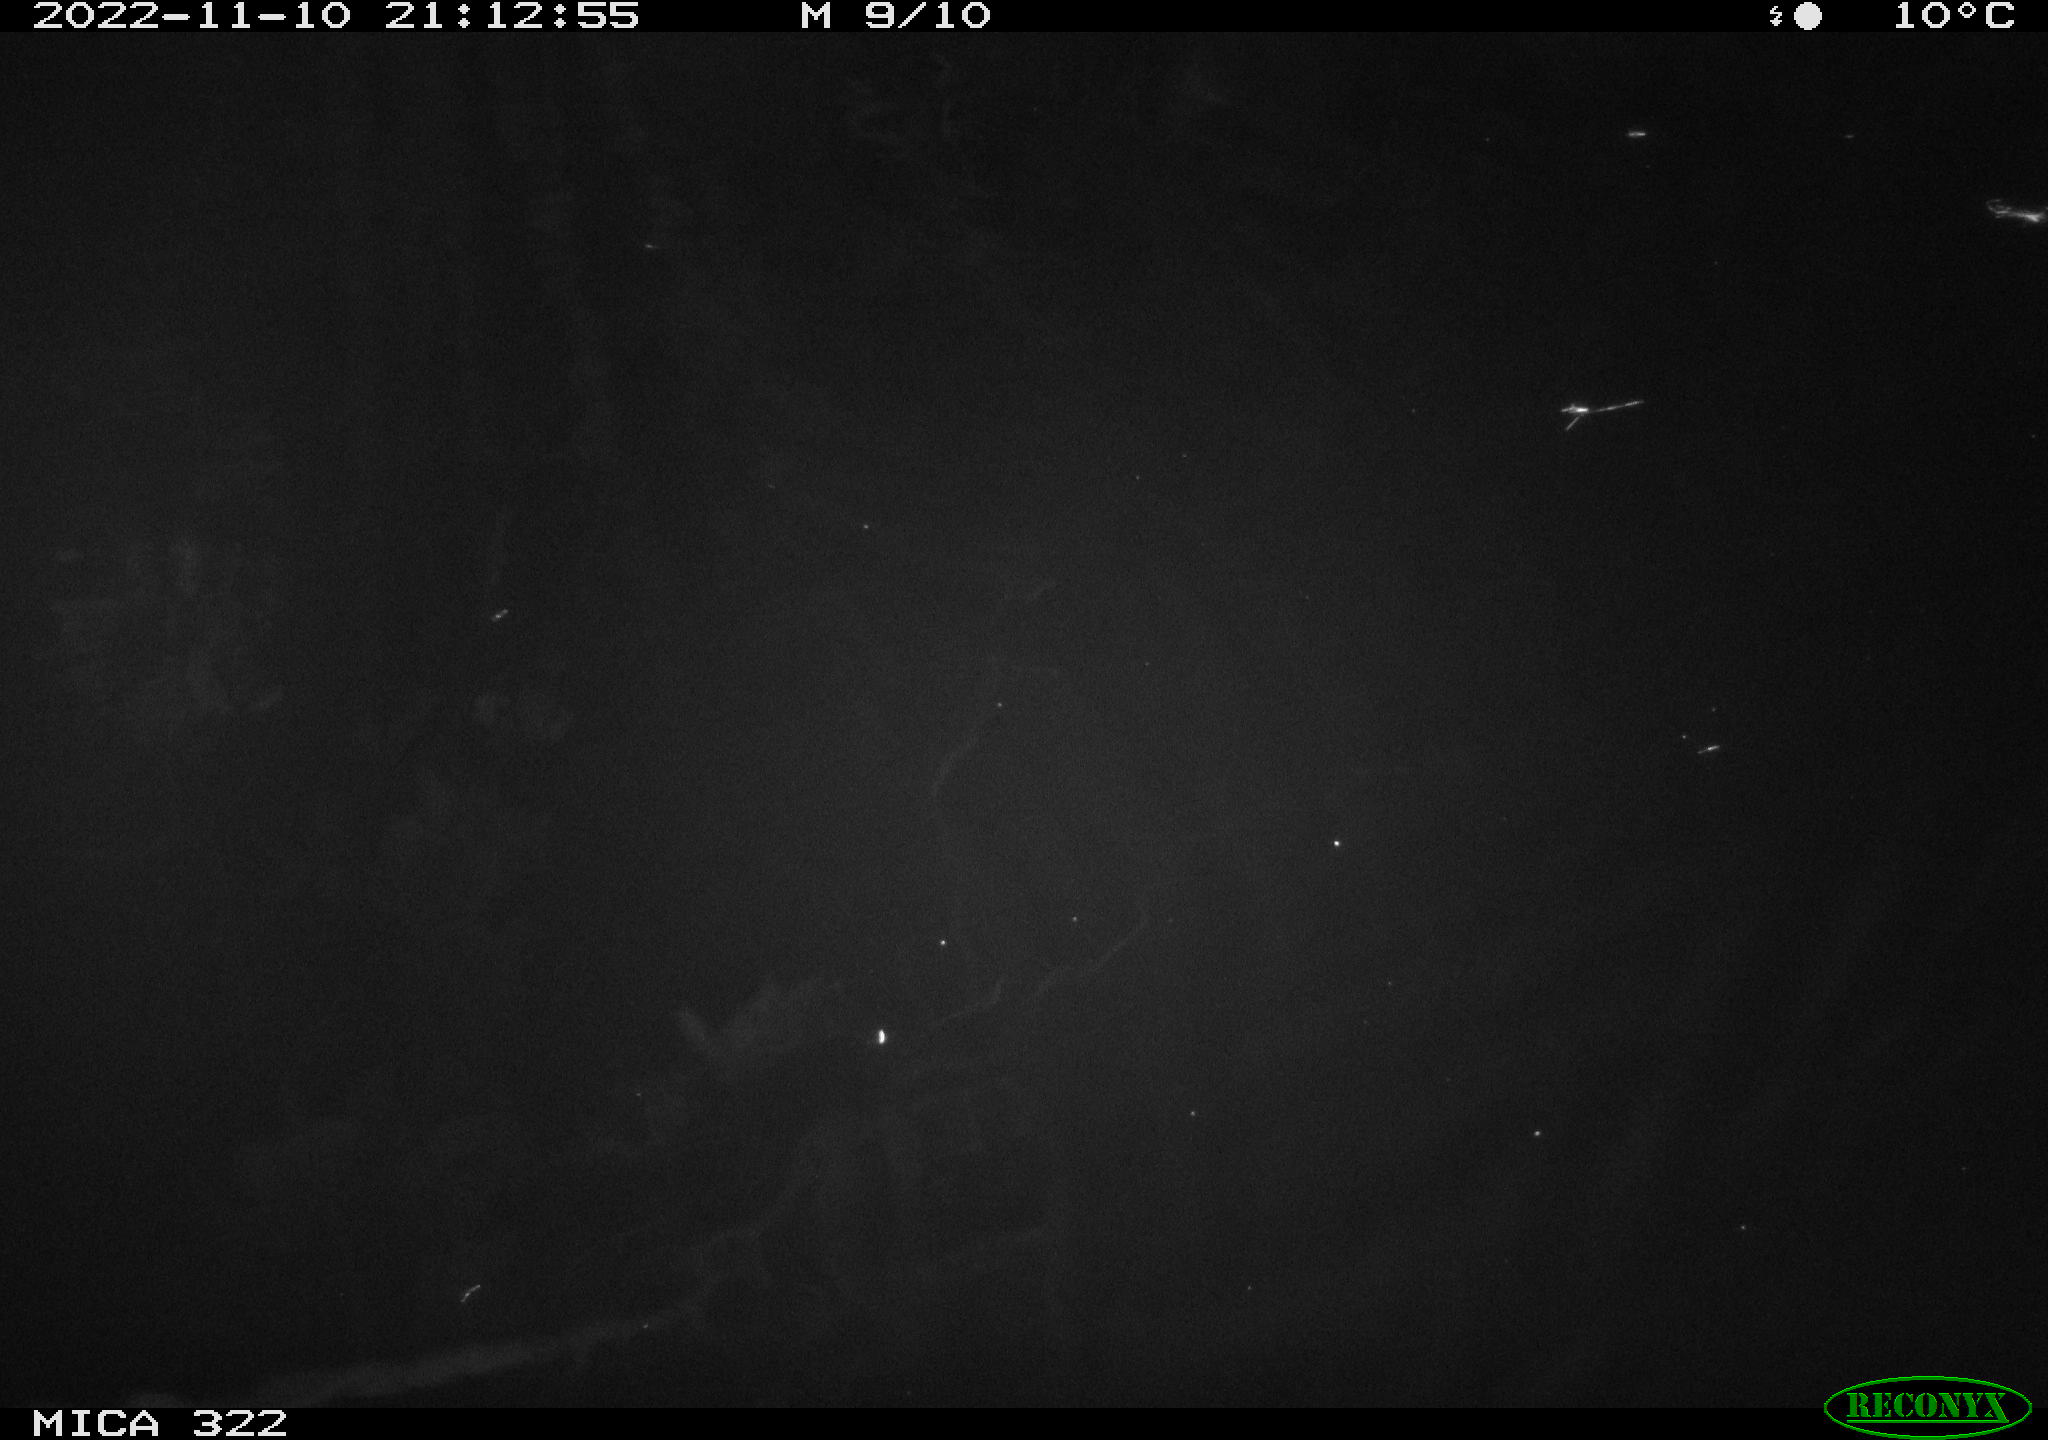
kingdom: Animalia
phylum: Chordata
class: Mammalia
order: Rodentia
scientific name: Rodentia
